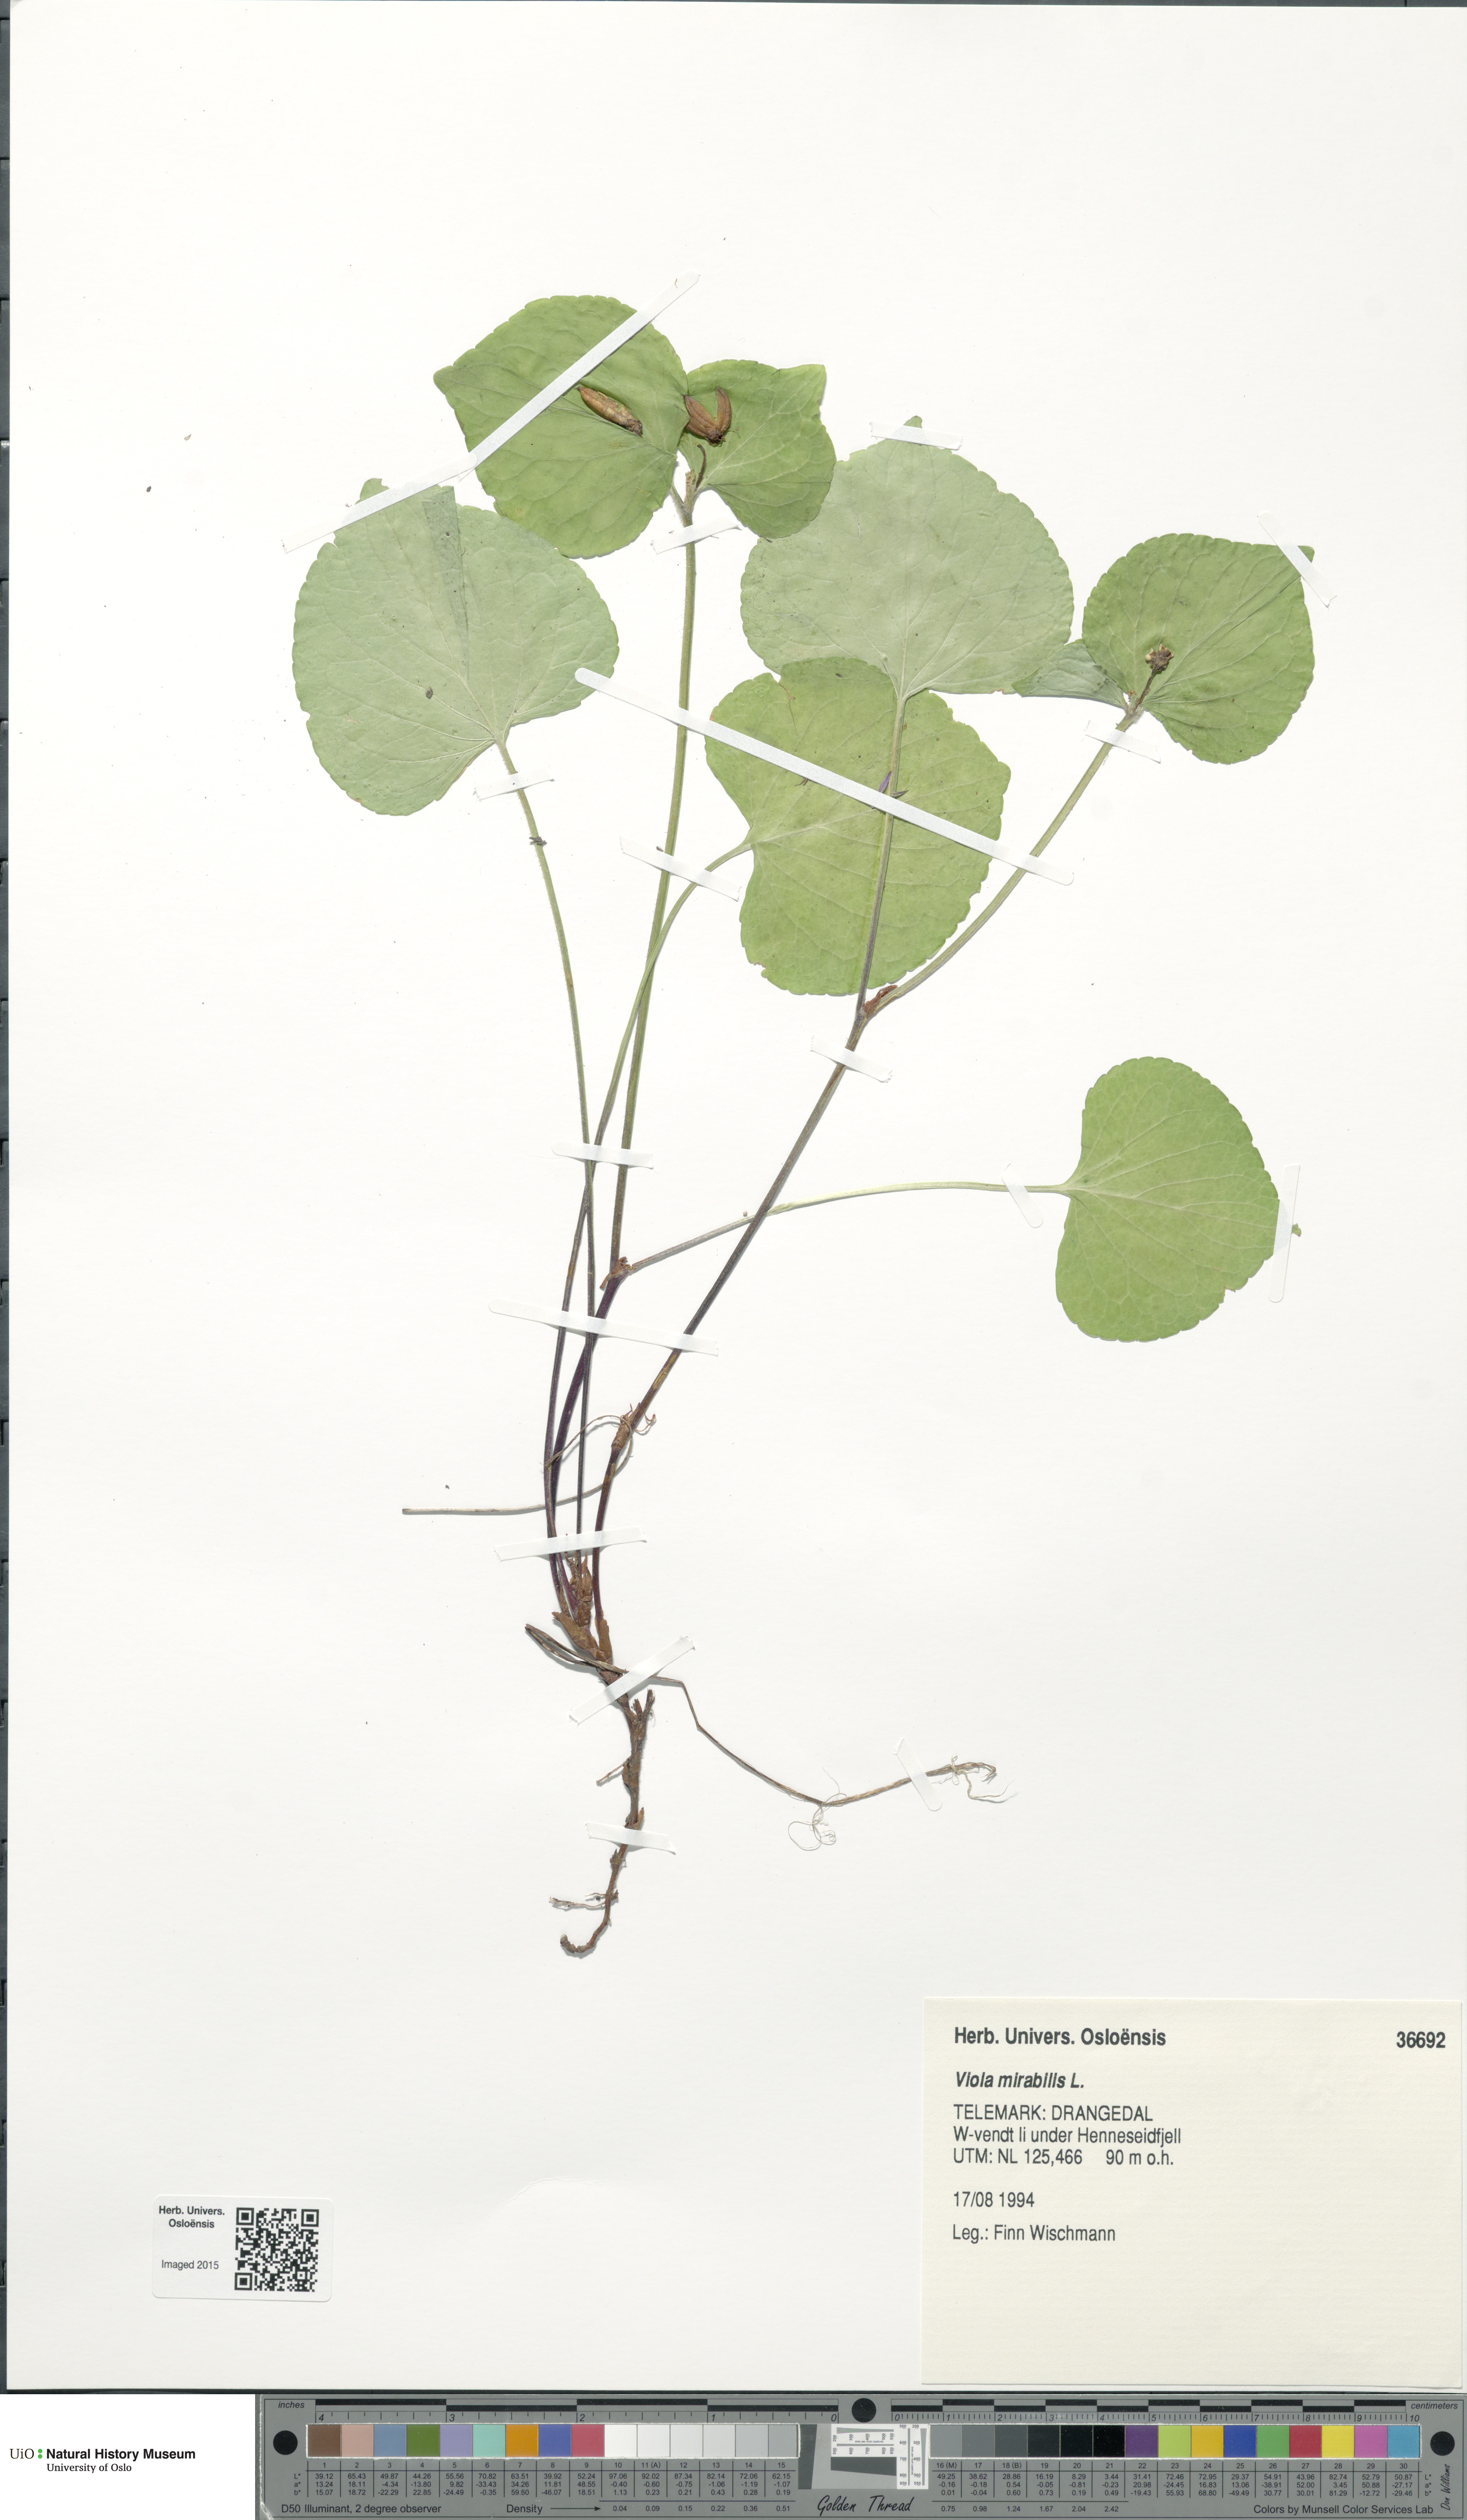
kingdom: Plantae
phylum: Tracheophyta
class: Magnoliopsida
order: Malpighiales
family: Violaceae
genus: Viola
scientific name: Viola mirabilis
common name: Wonder violet
